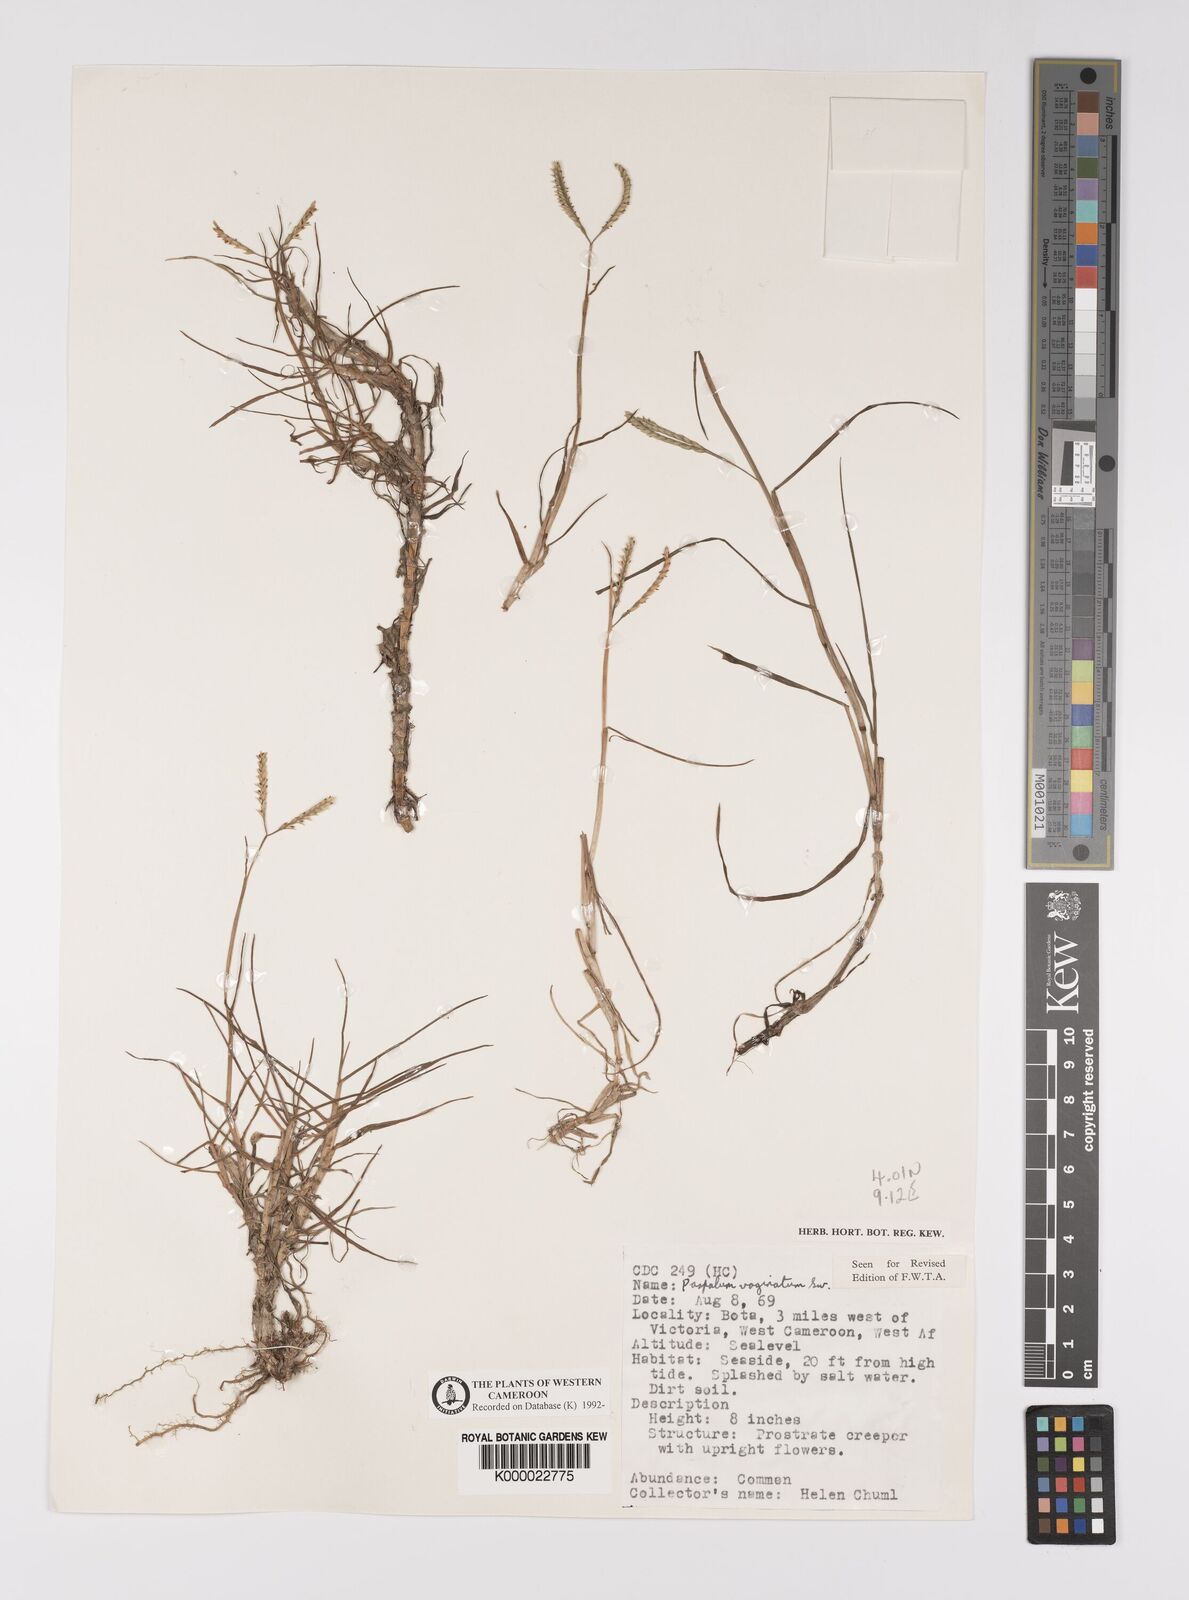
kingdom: Plantae
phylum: Tracheophyta
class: Liliopsida
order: Poales
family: Poaceae
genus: Paspalum
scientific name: Paspalum vaginatum
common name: Seashore paspalum
